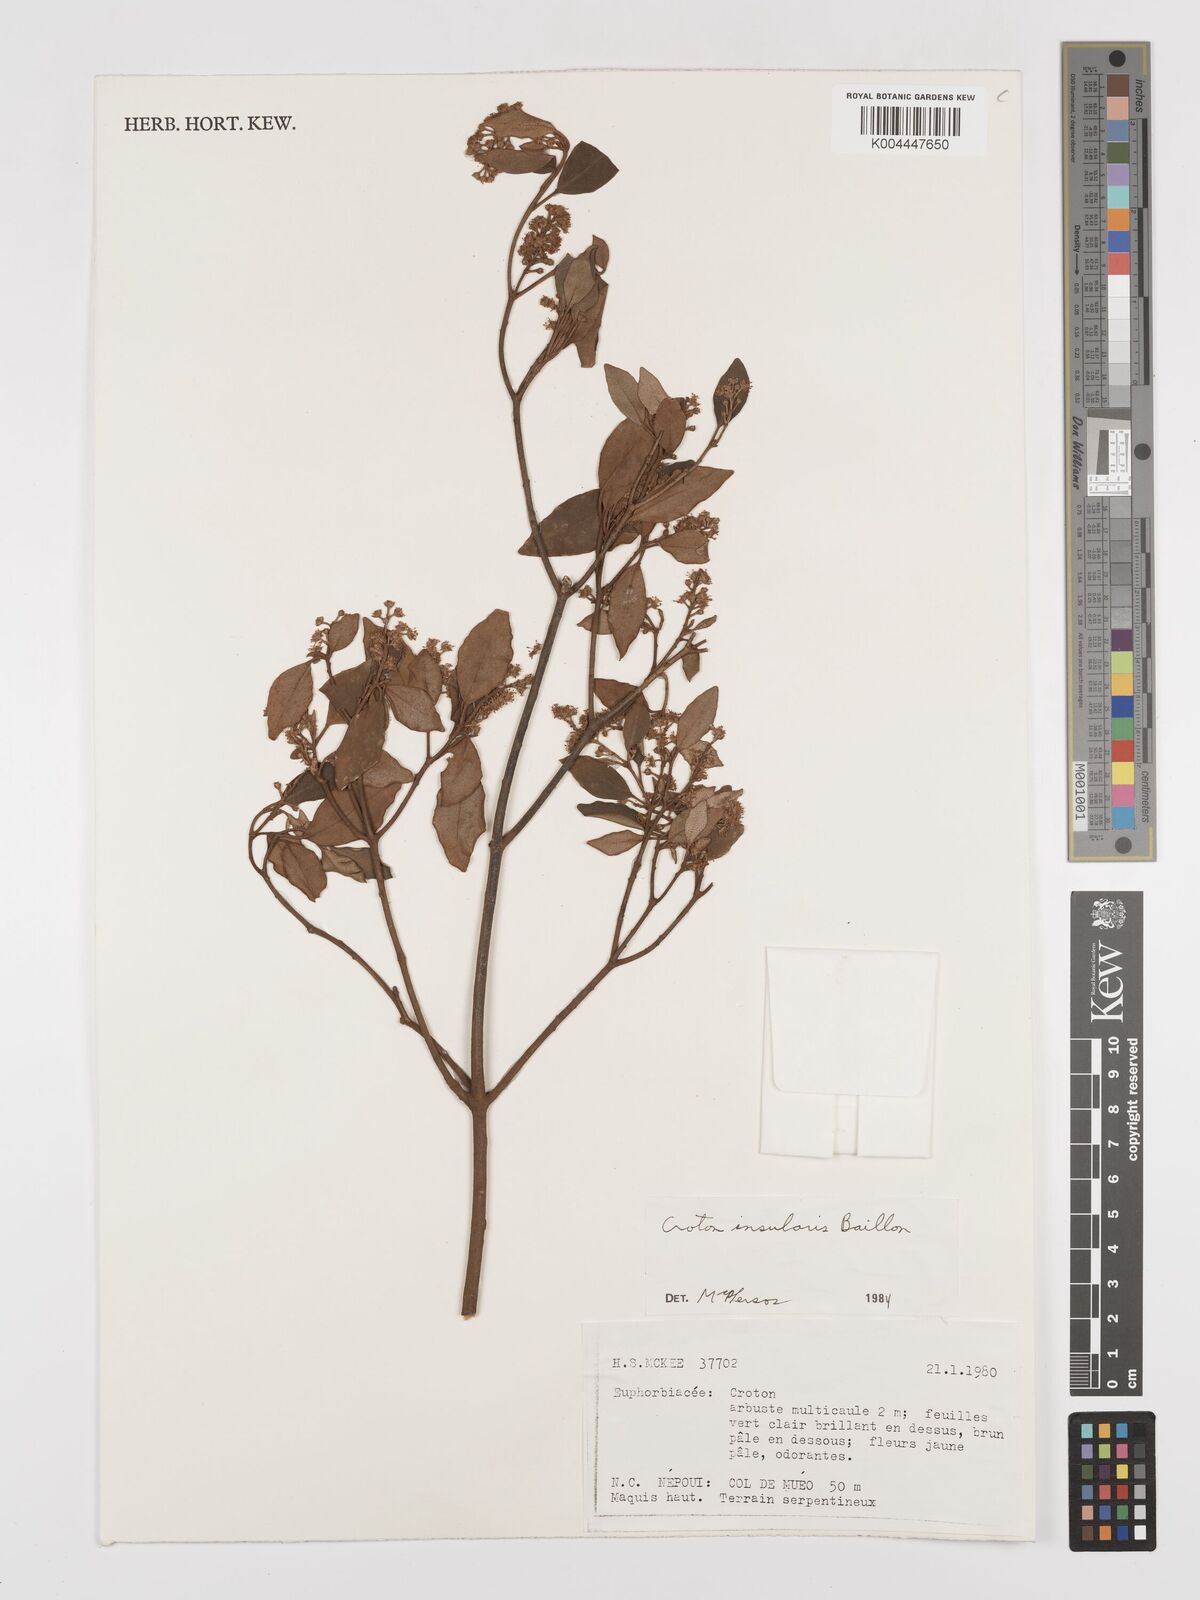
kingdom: Plantae
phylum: Tracheophyta
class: Magnoliopsida
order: Malpighiales
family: Euphorbiaceae
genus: Croton
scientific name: Croton insularis
